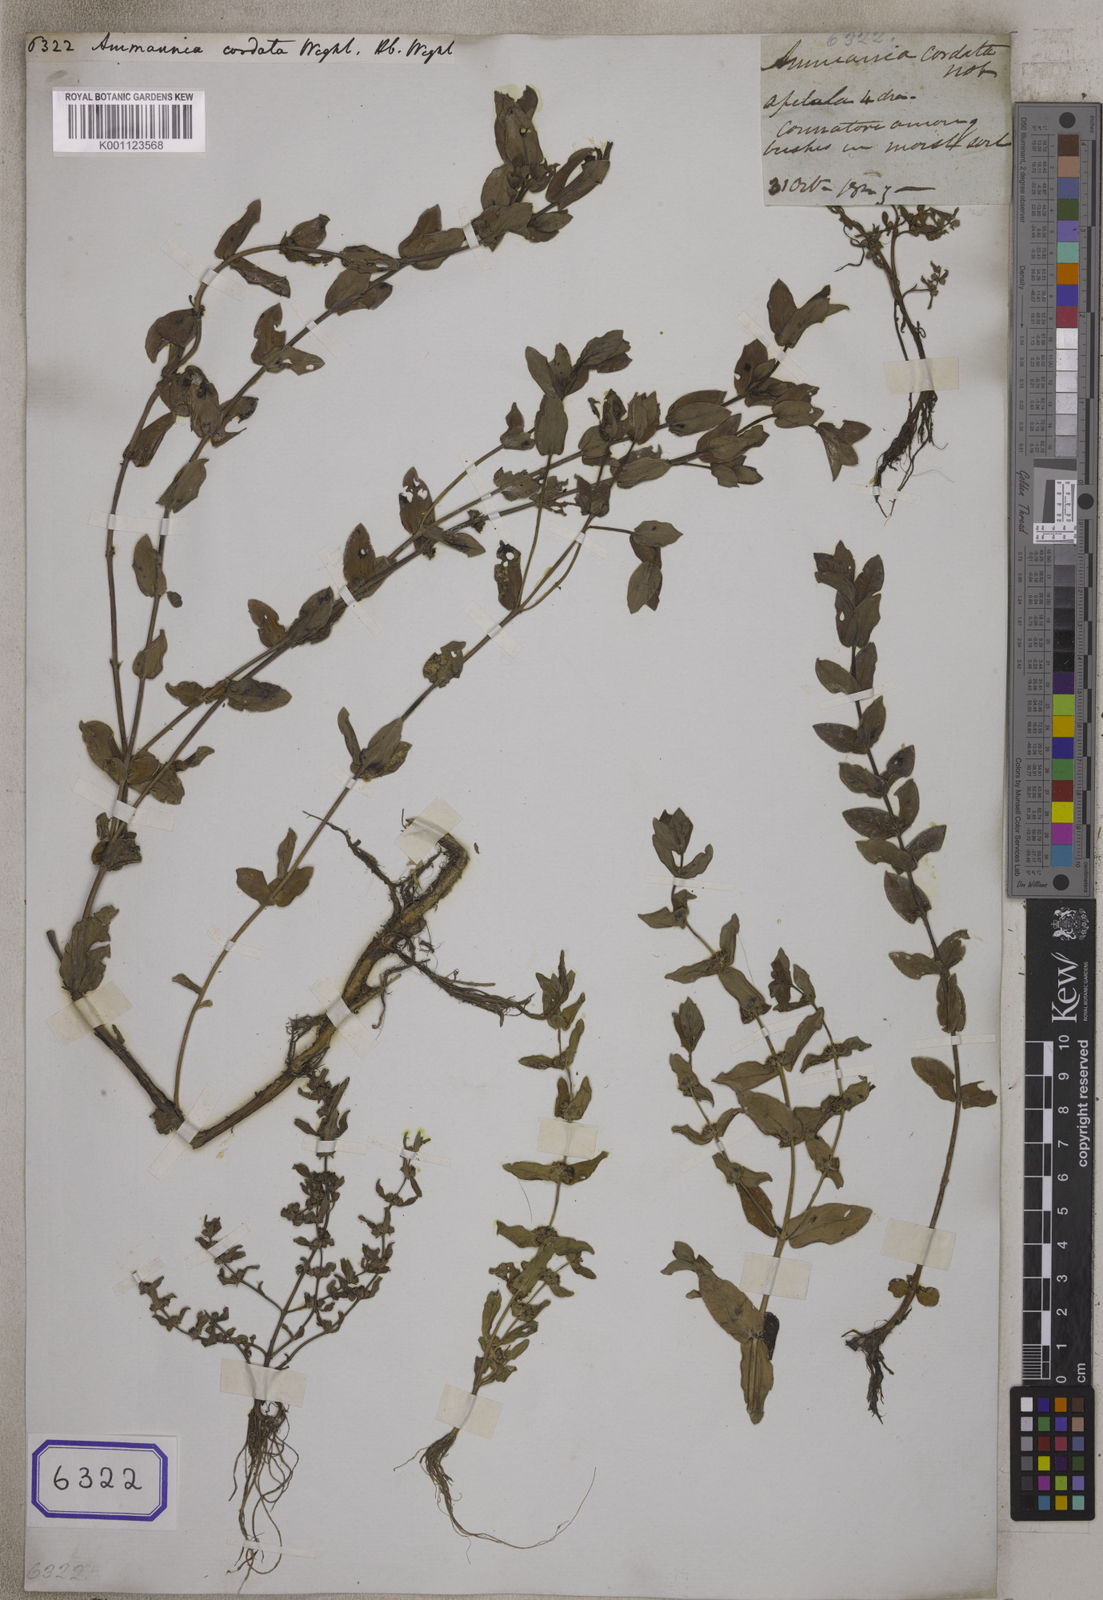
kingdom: Plantae
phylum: Tracheophyta
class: Magnoliopsida
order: Myrtales
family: Lythraceae
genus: Ammannia
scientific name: Ammannia cordata
